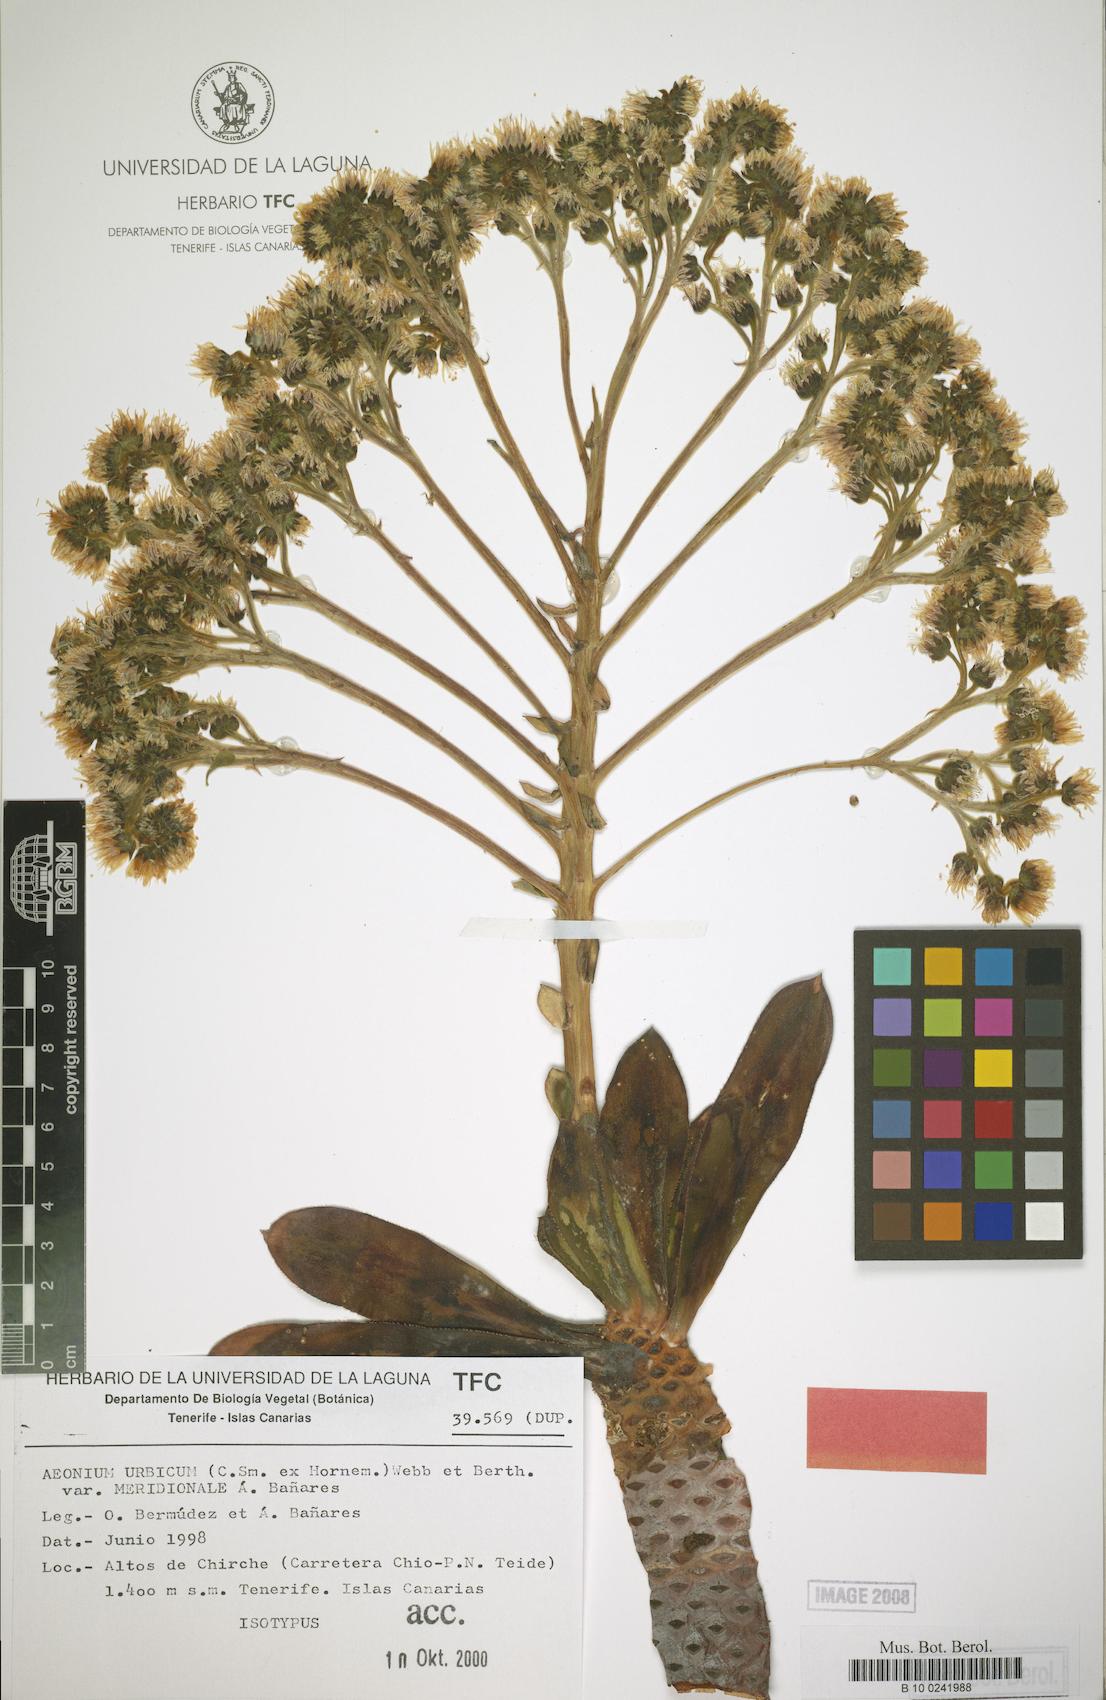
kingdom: Plantae
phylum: Tracheophyta
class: Magnoliopsida
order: Saxifragales
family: Crassulaceae
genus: Aeonium
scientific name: Aeonium urbicum
